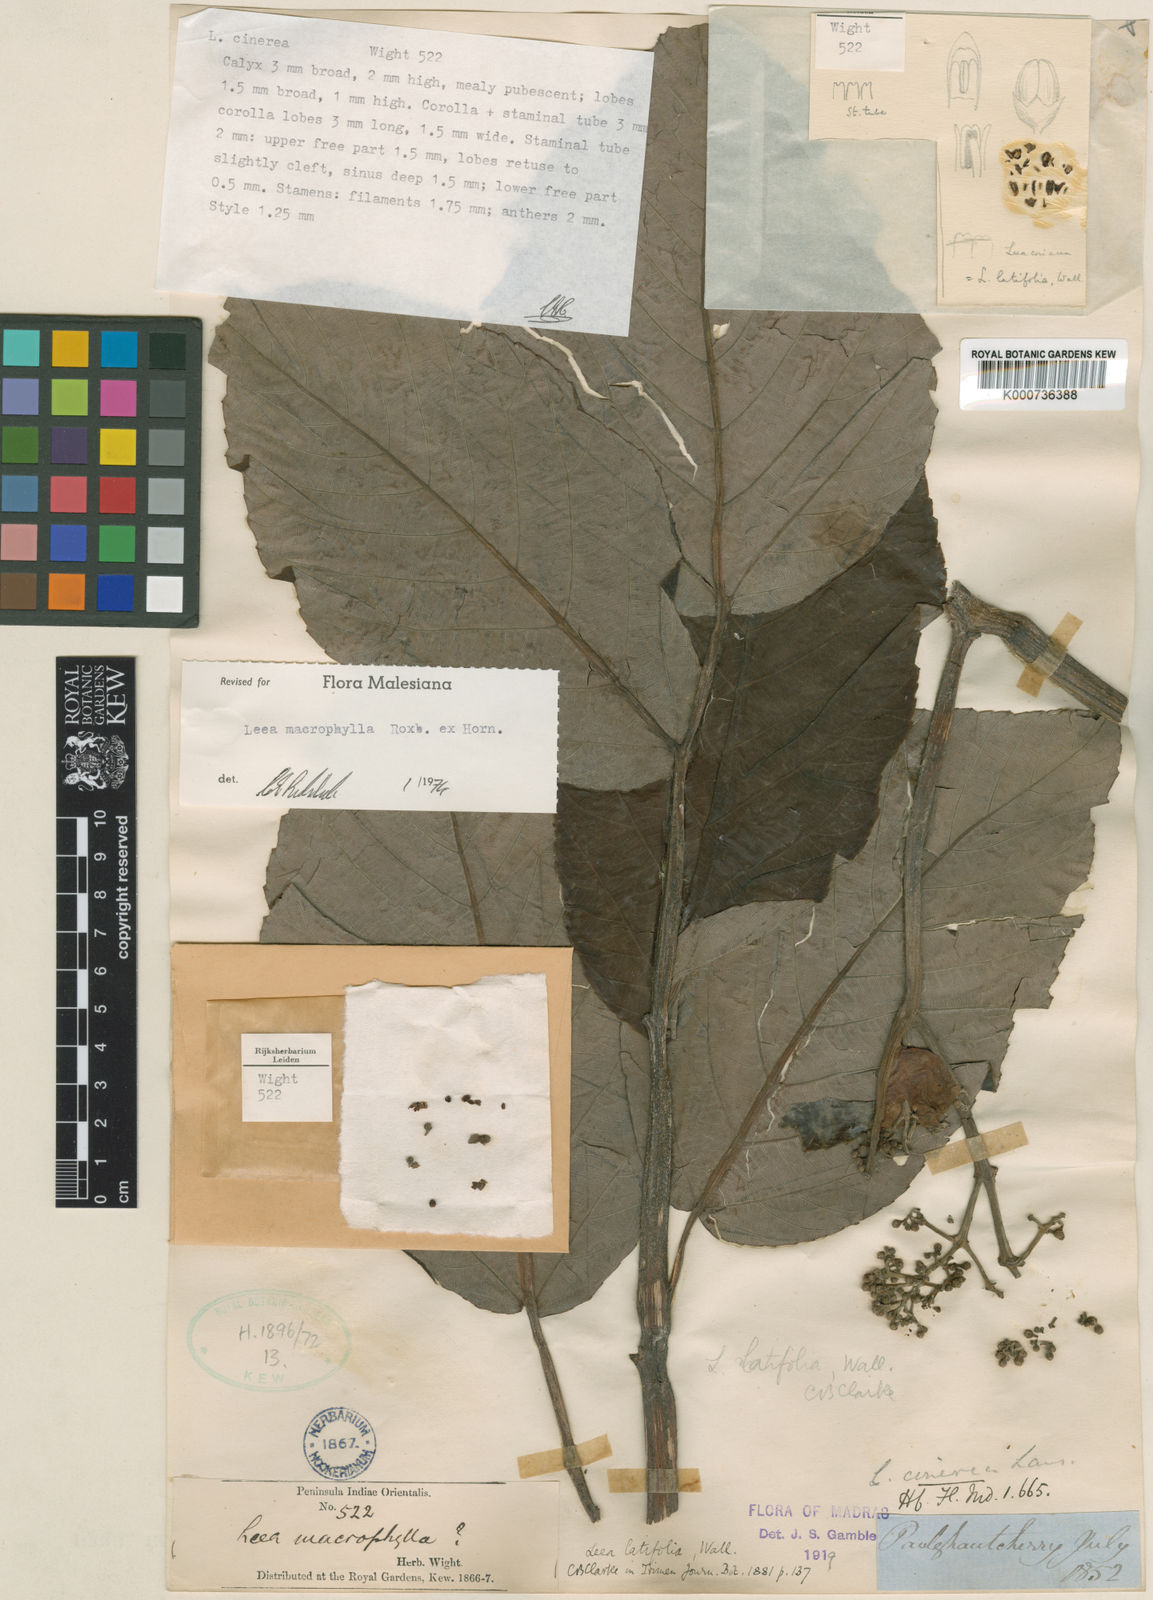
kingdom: Plantae
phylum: Tracheophyta
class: Magnoliopsida
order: Vitales
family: Vitaceae
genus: Leea
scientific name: Leea macrophylla
